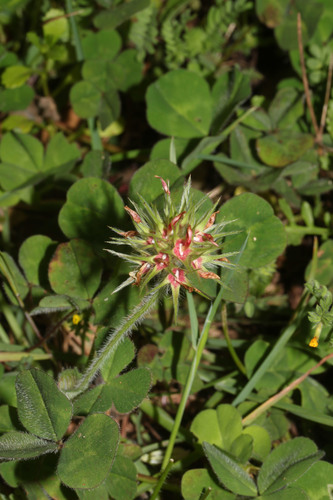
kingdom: Plantae
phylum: Tracheophyta
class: Magnoliopsida
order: Fabales
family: Fabaceae
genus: Trifolium
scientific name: Trifolium stellatum
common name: Starry clover
